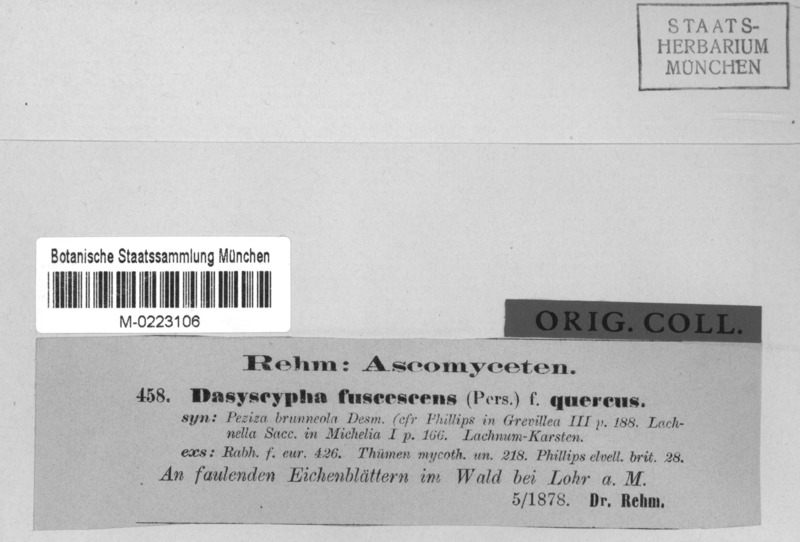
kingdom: Fungi
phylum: Ascomycota
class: Leotiomycetes
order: Helotiales
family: Lachnaceae
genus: Brunnipila
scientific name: Brunnipila fuscescens
